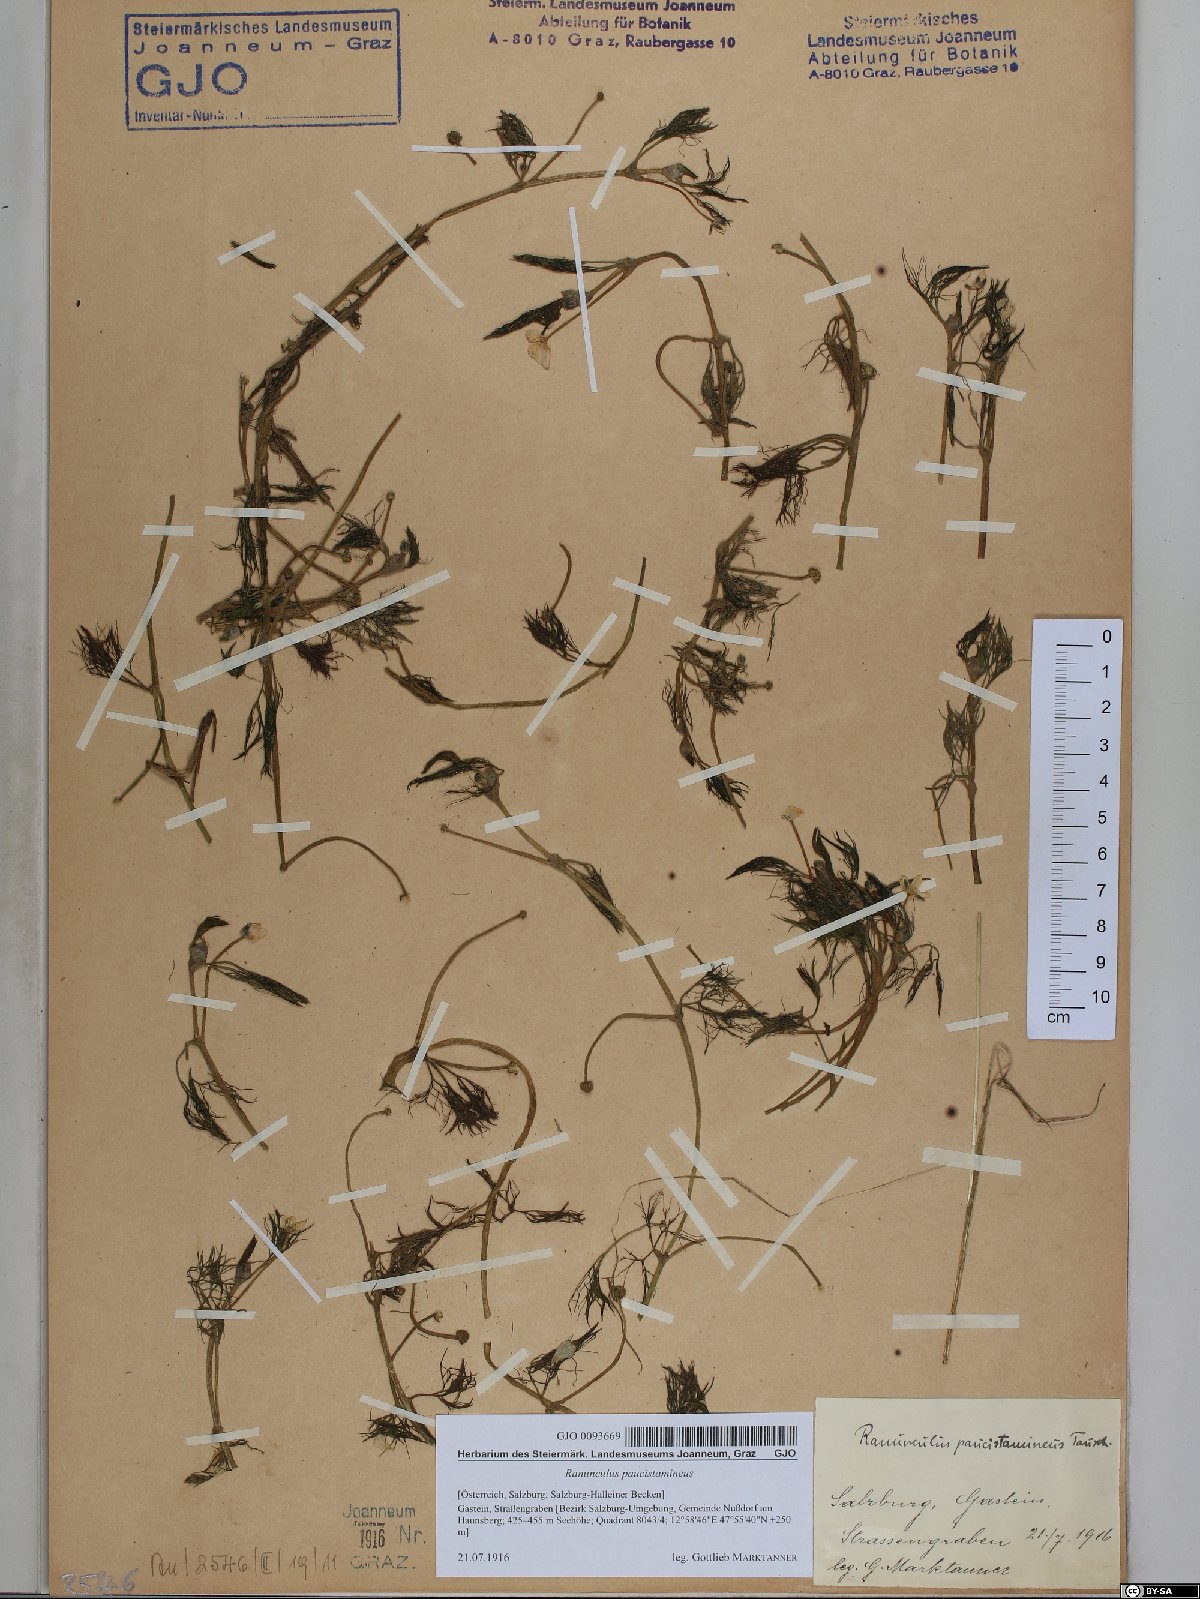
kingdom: Plantae
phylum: Tracheophyta
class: Magnoliopsida
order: Ranunculales
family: Ranunculaceae
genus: Ranunculus
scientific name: Ranunculus
